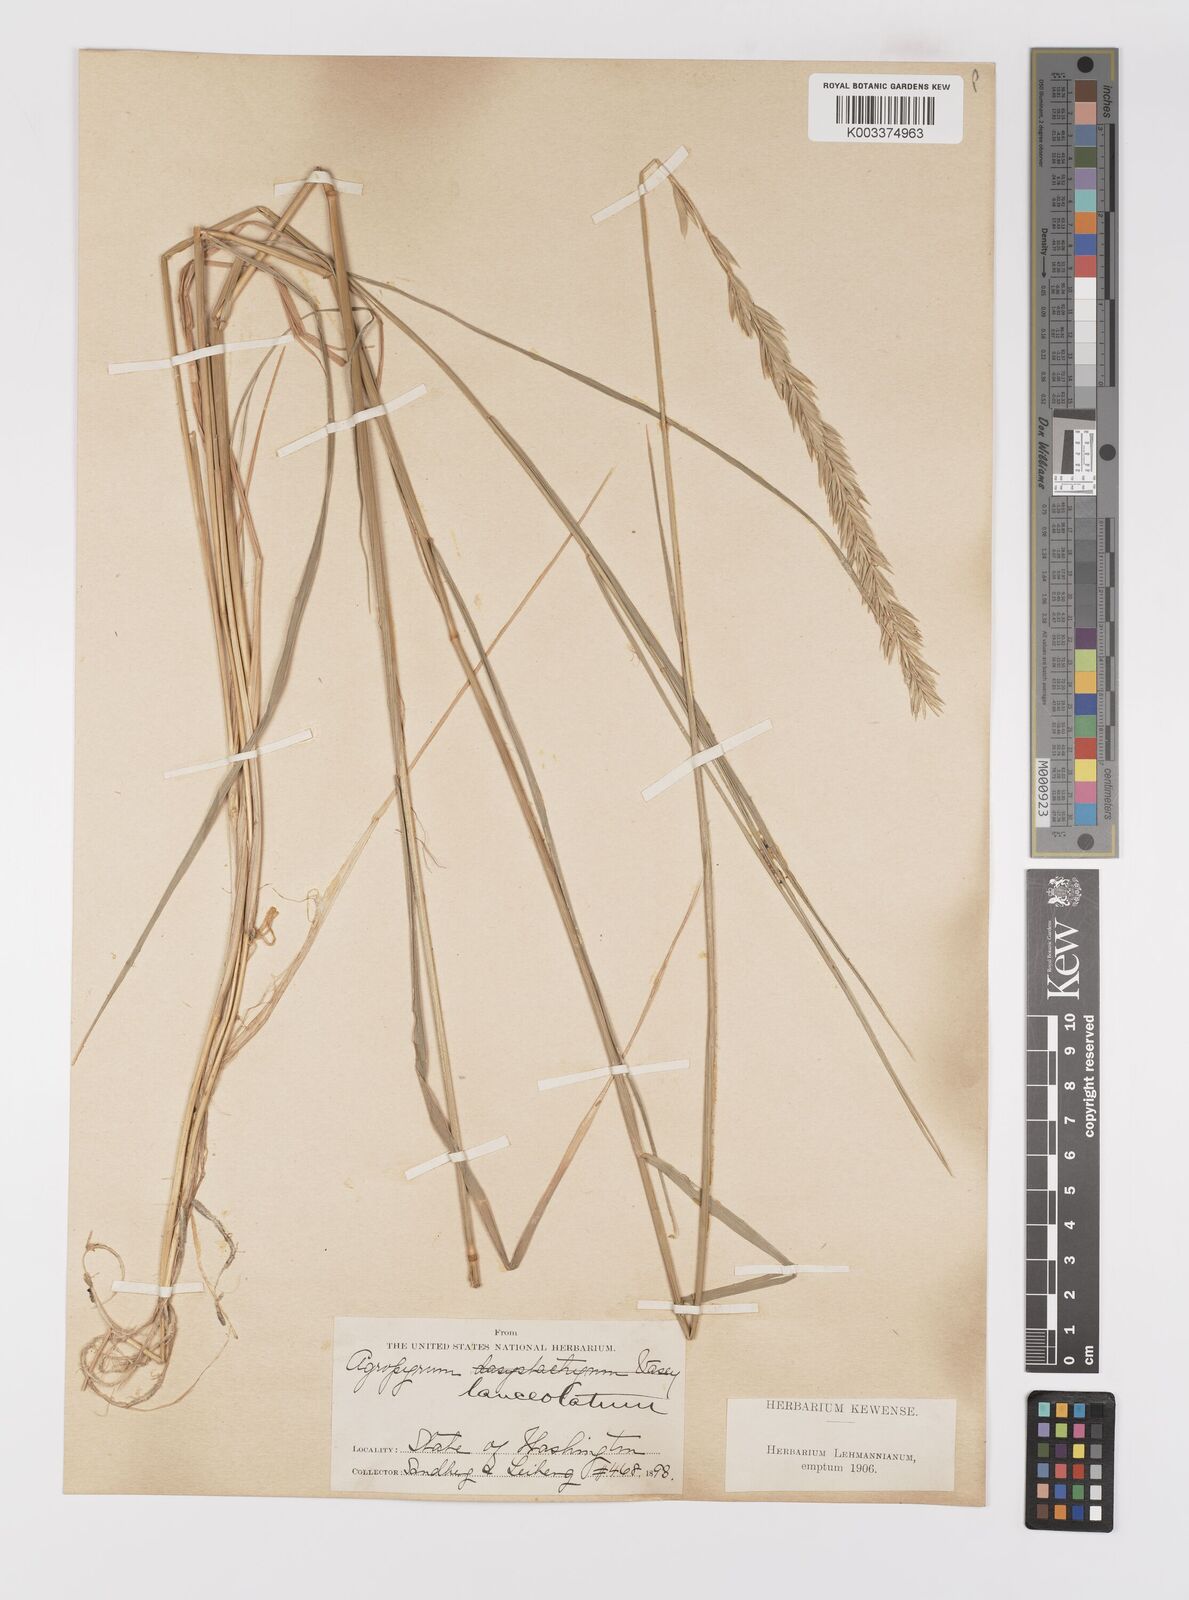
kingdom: Plantae
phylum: Tracheophyta
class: Liliopsida
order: Poales
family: Poaceae
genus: Elymus
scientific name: Elymus lanceolatus
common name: Thick-spike wheatgrass
